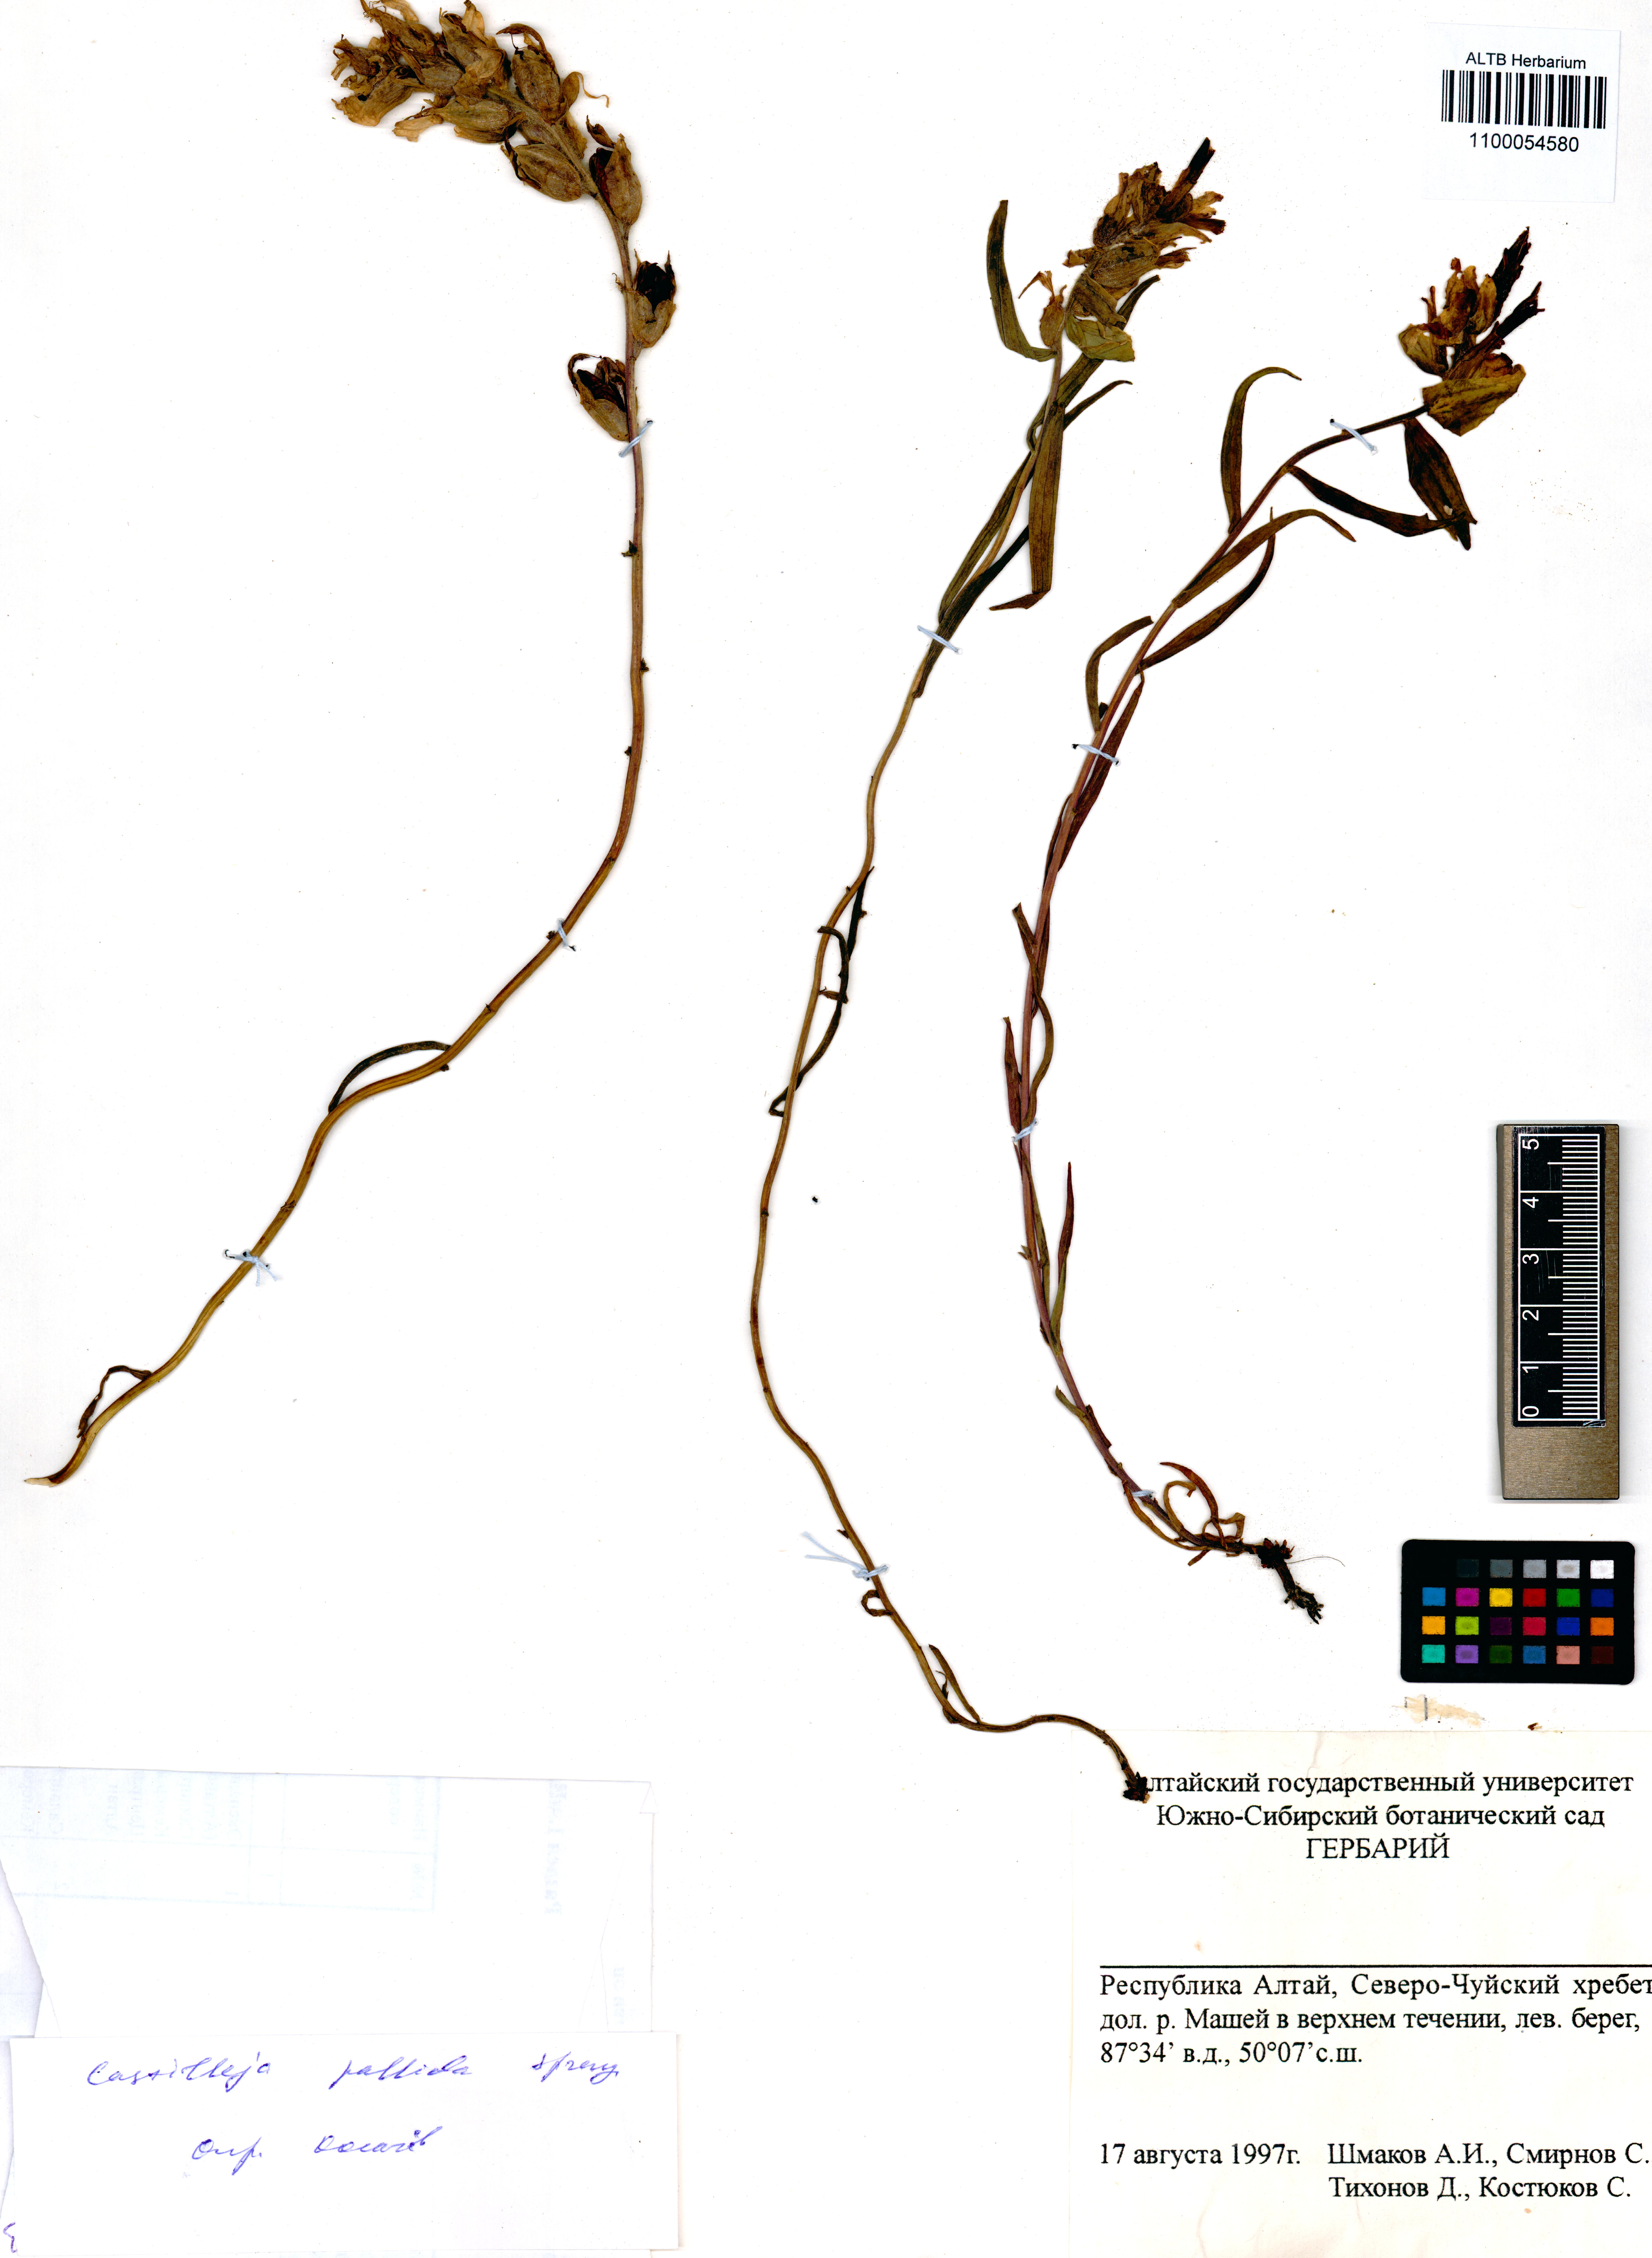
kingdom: Plantae
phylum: Tracheophyta
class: Magnoliopsida
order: Lamiales
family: Orobanchaceae
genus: Castilleja
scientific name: Castilleja pallida
